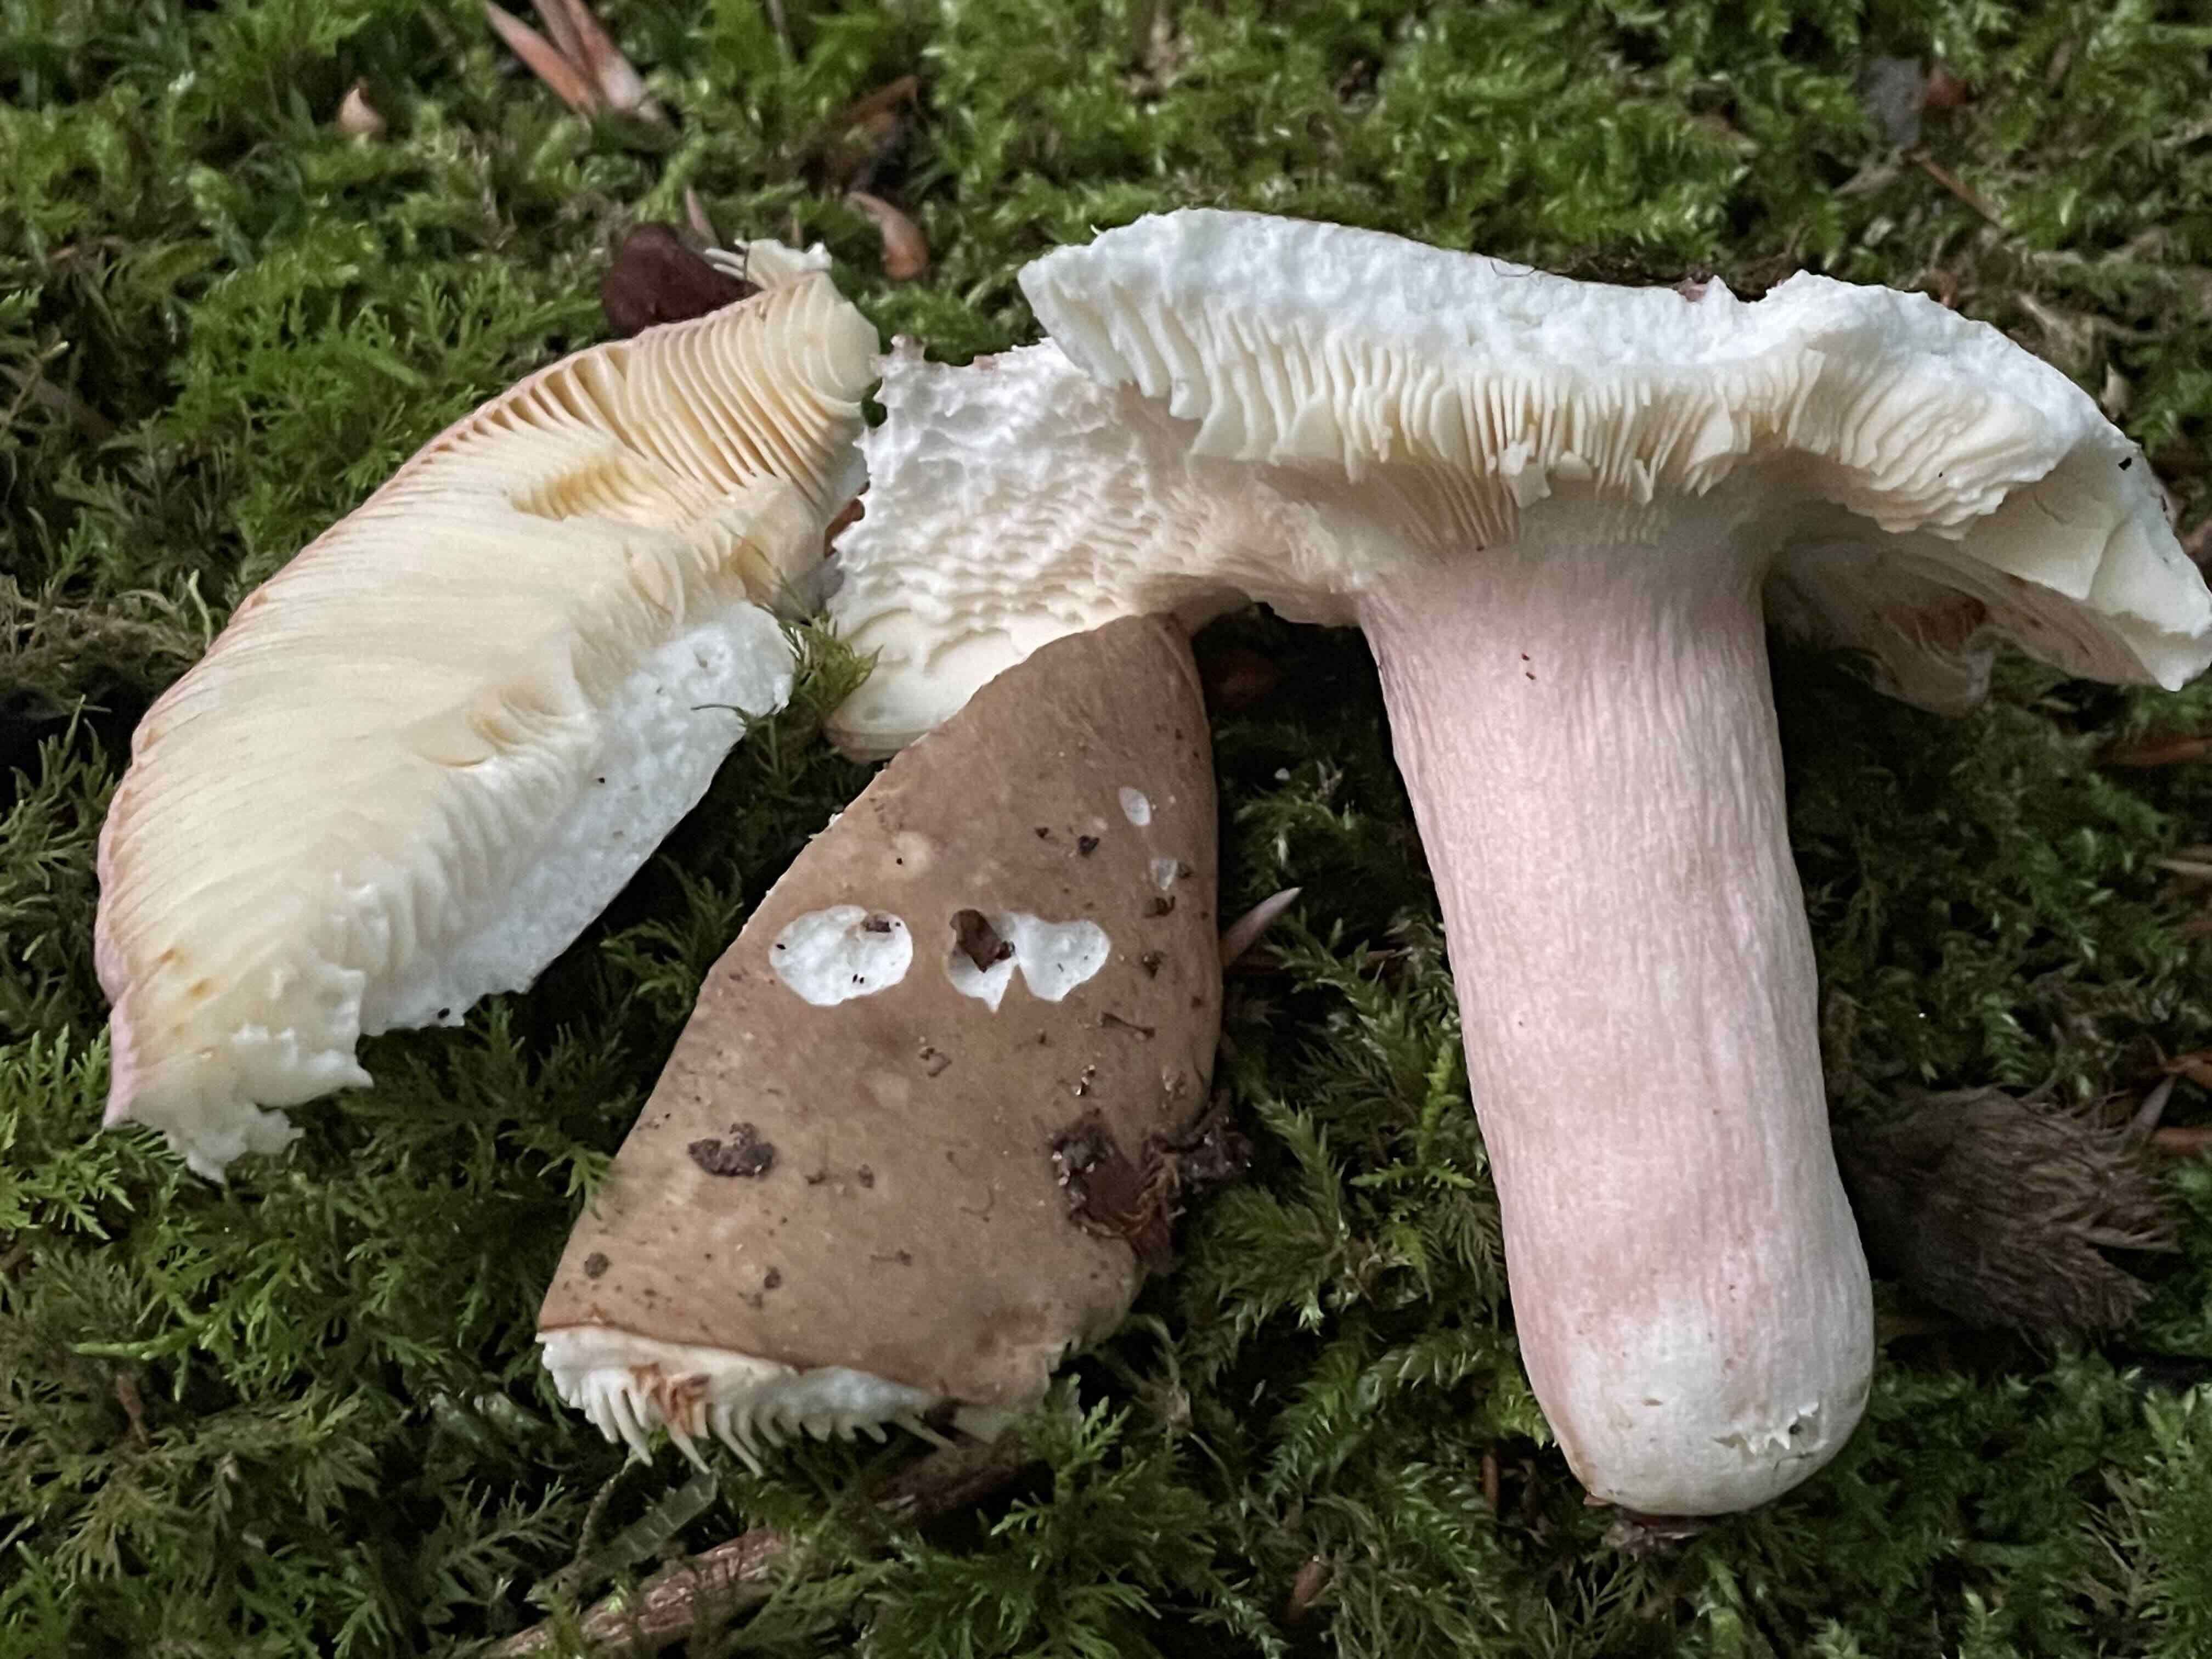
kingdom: Fungi
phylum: Basidiomycota
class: Agaricomycetes
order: Russulales
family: Russulaceae
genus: Russula
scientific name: Russula olivacea
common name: stor skørhat
